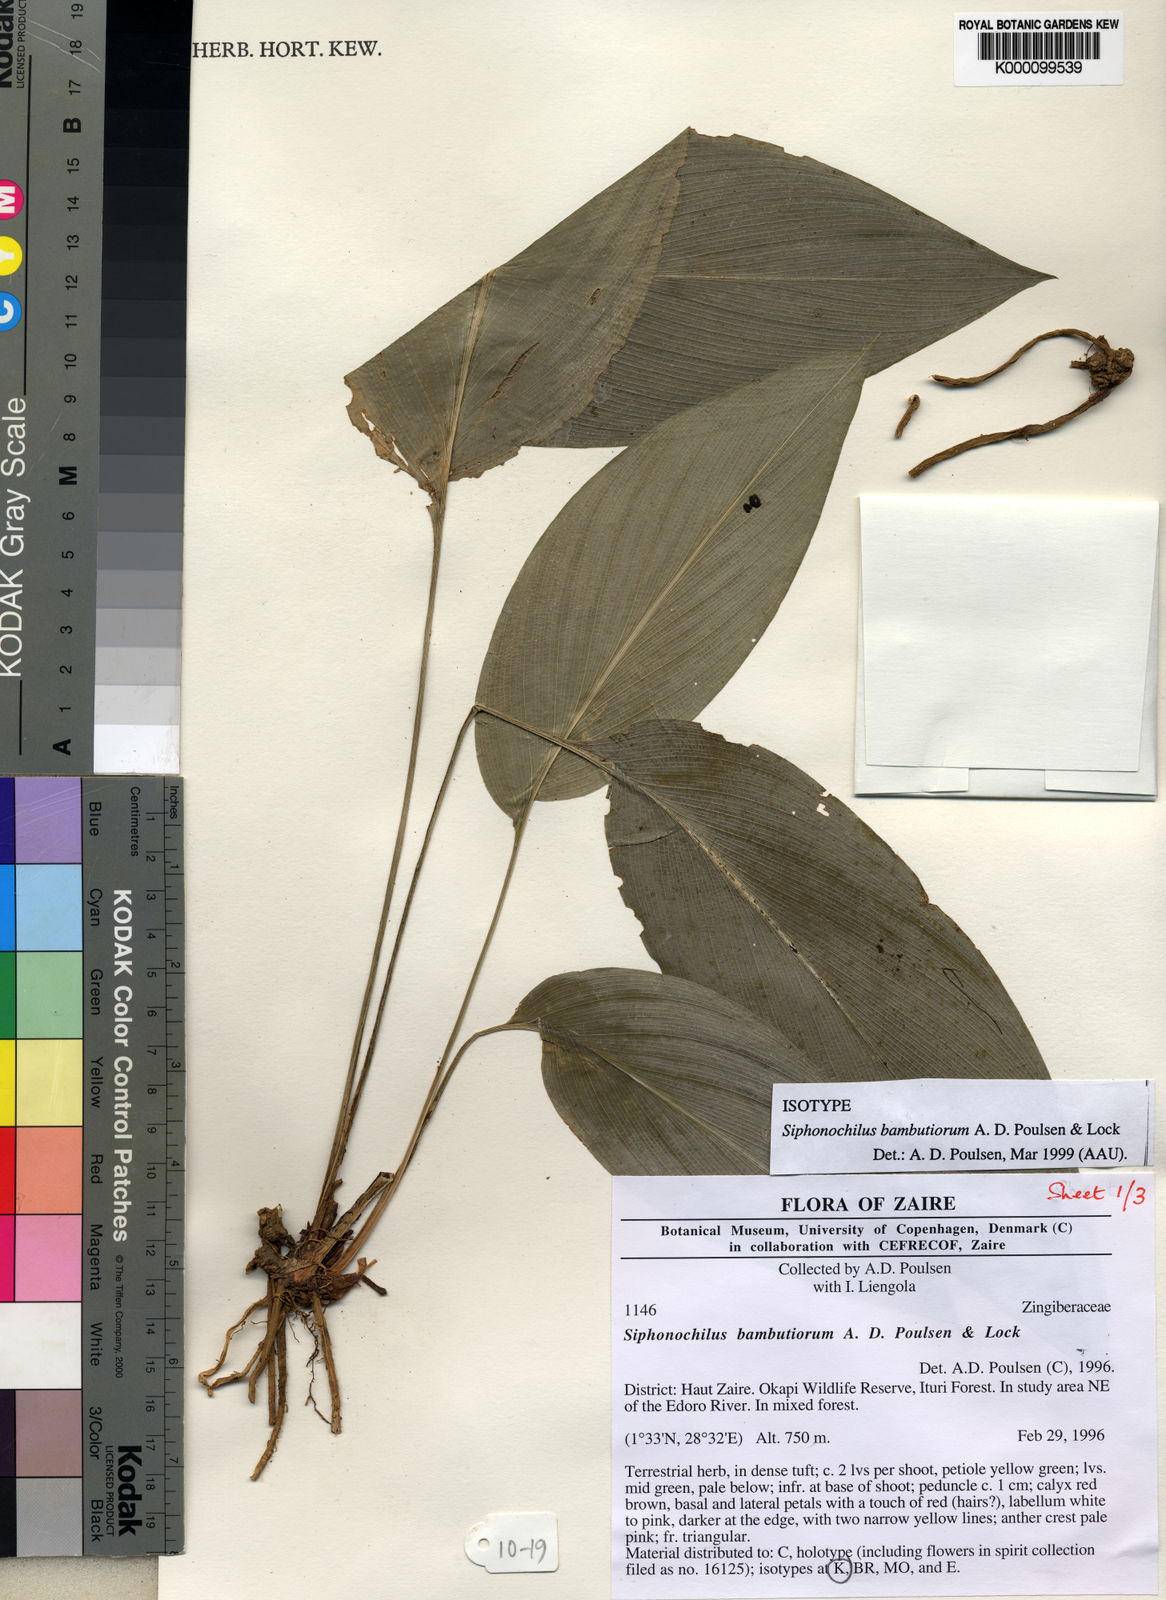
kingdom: Plantae
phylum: Tracheophyta
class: Liliopsida
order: Zingiberales
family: Zingiberaceae
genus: Siphonochilus
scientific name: Siphonochilus bambutiorum
